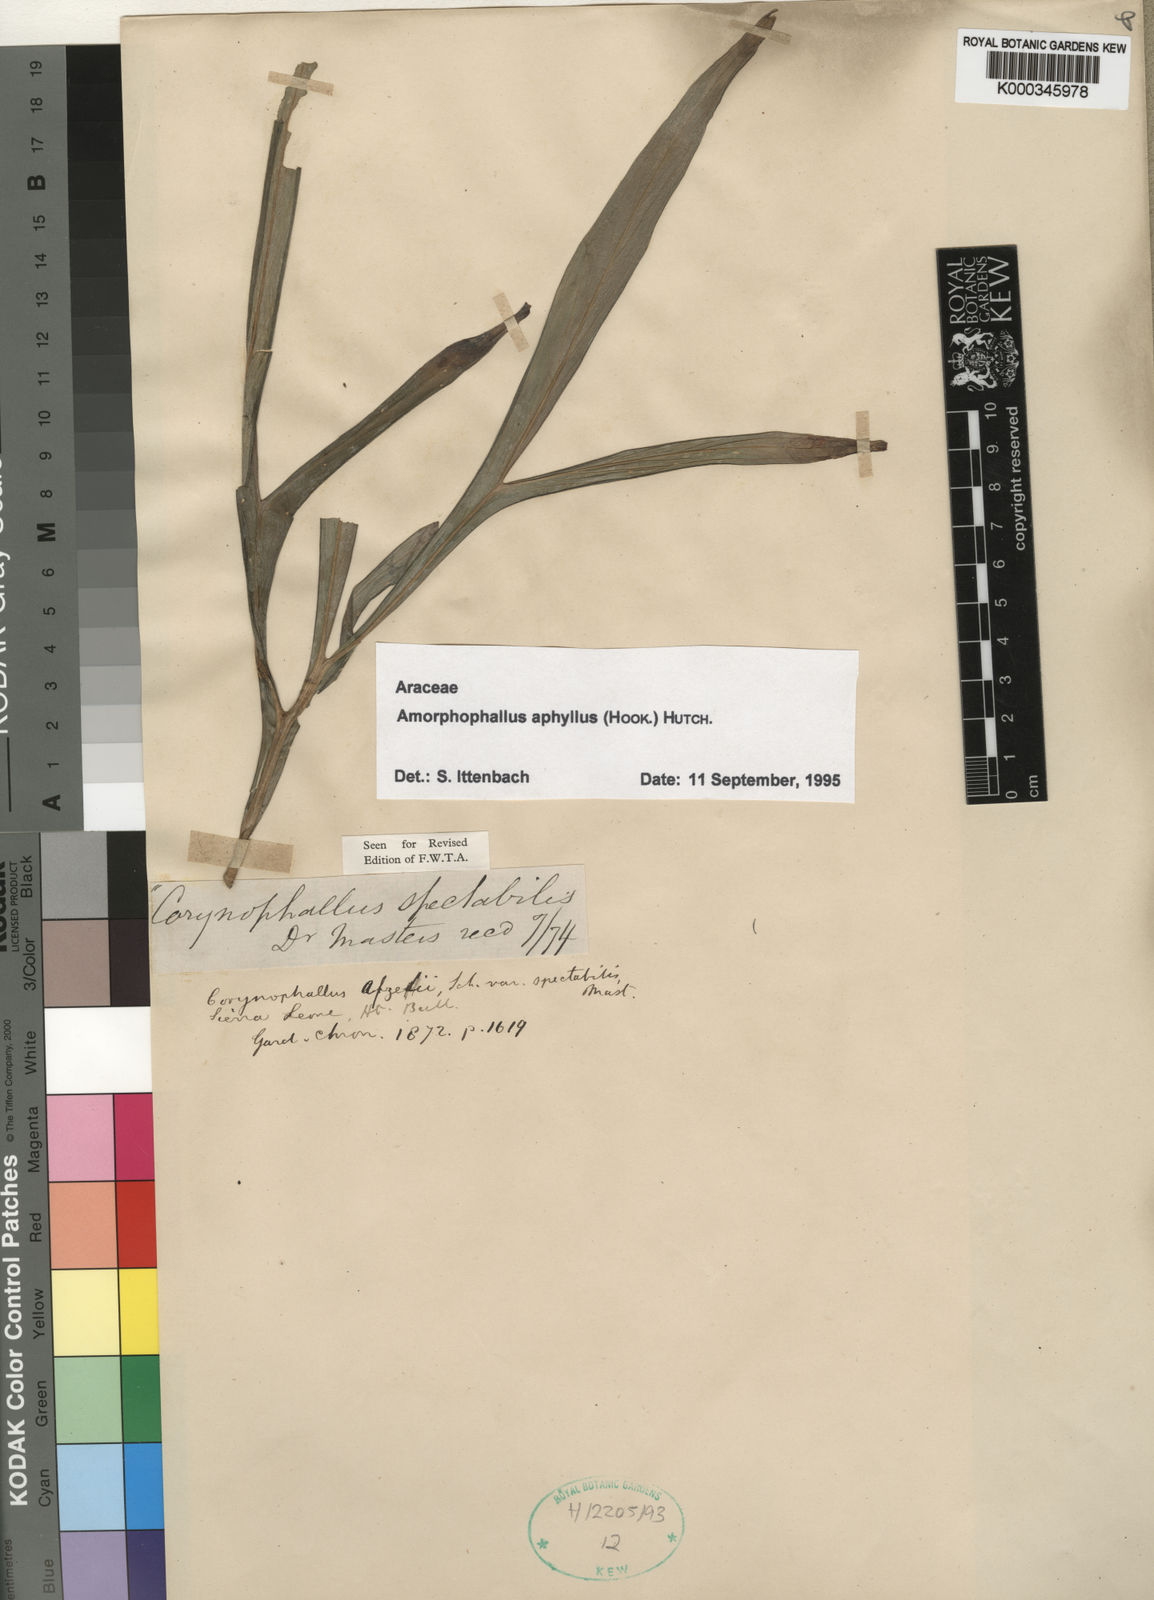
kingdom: Plantae
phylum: Tracheophyta
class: Liliopsida
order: Alismatales
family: Araceae
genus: Amorphophallus
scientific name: Amorphophallus aphyllus
